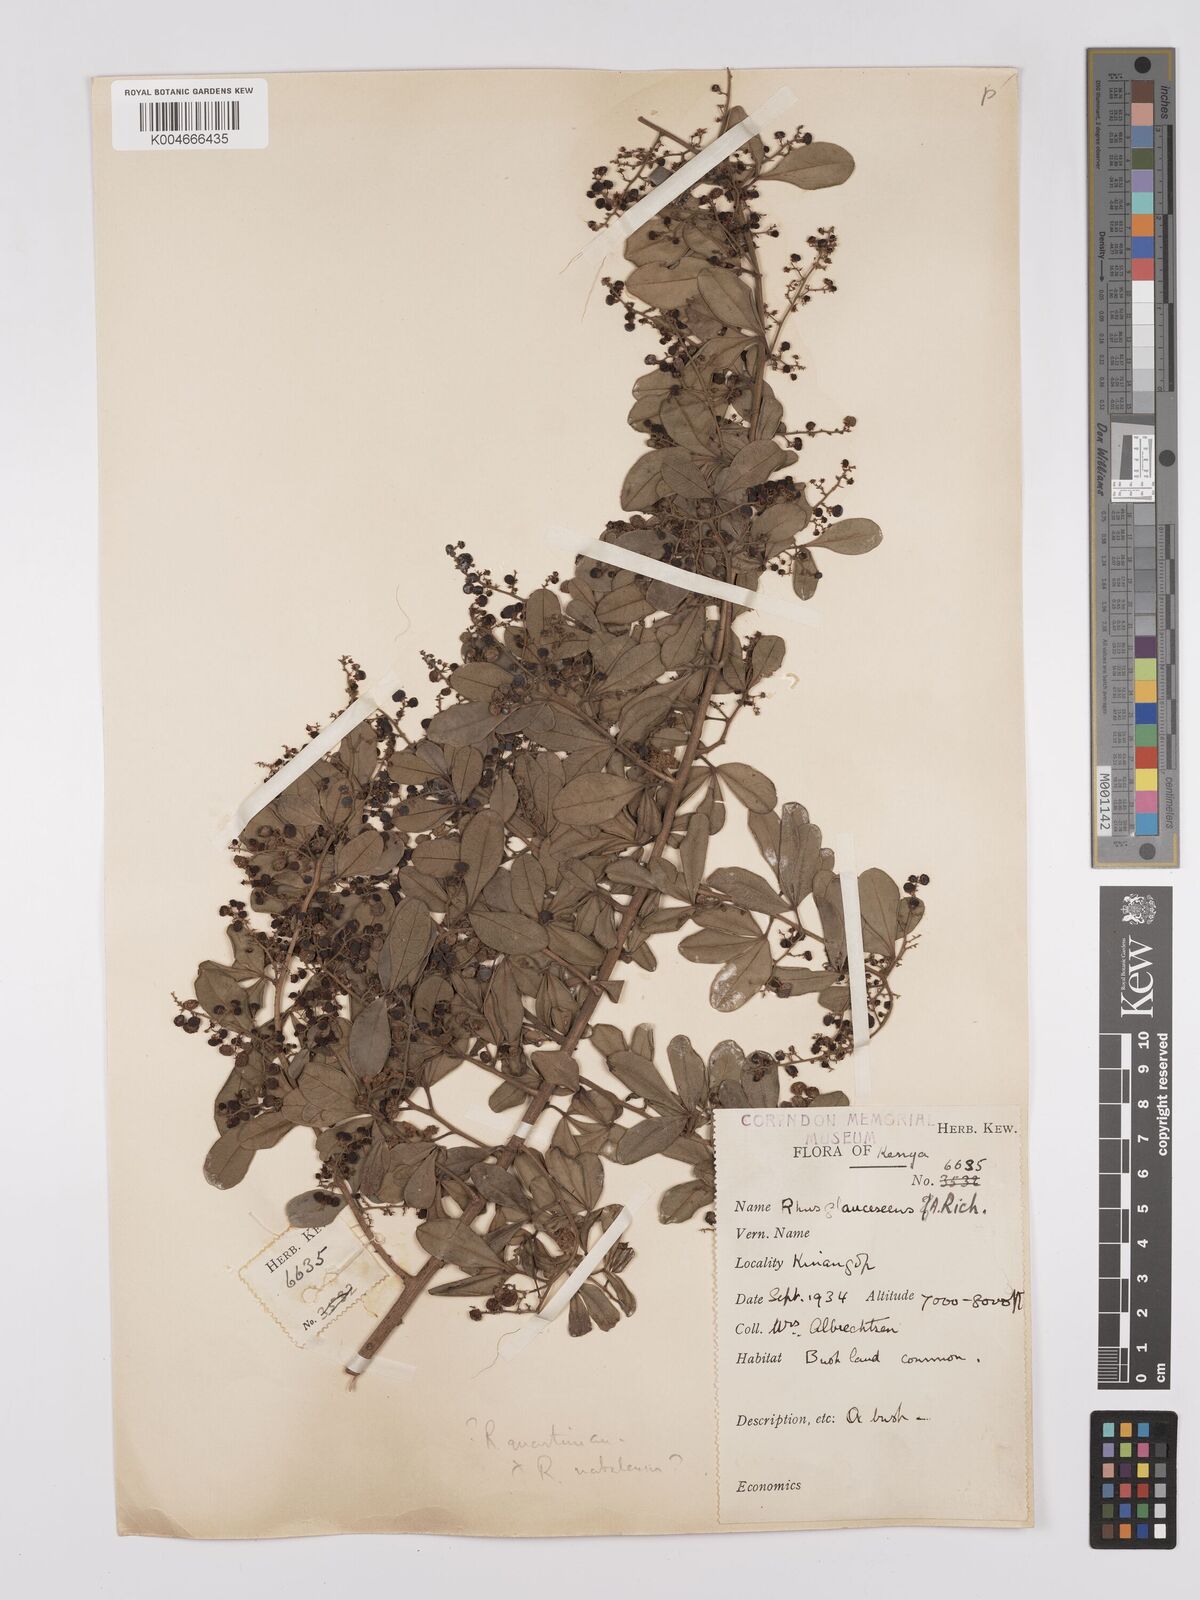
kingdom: Plantae
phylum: Tracheophyta
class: Magnoliopsida
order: Sapindales
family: Anacardiaceae
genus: Searsia
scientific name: Searsia quartiniana
